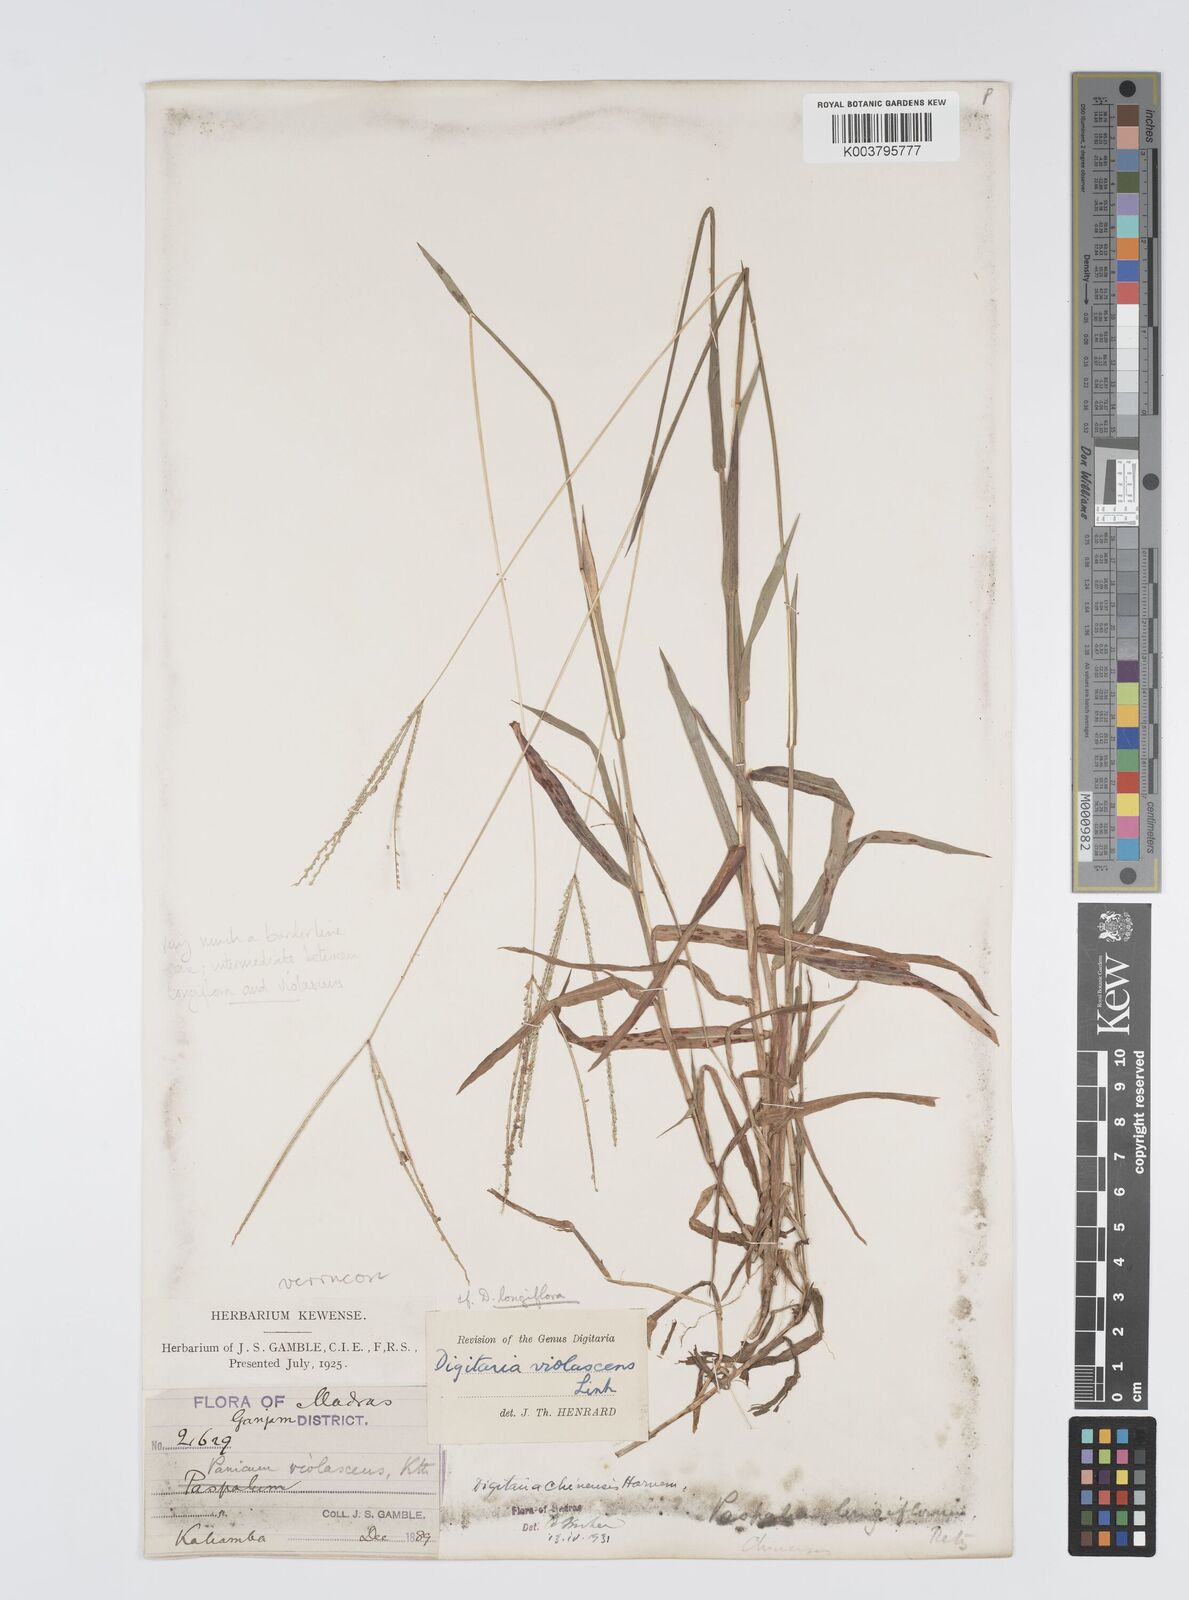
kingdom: Plantae
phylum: Tracheophyta
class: Liliopsida
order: Poales
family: Poaceae
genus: Digitaria
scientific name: Digitaria violascens
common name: Violet crabgrass
